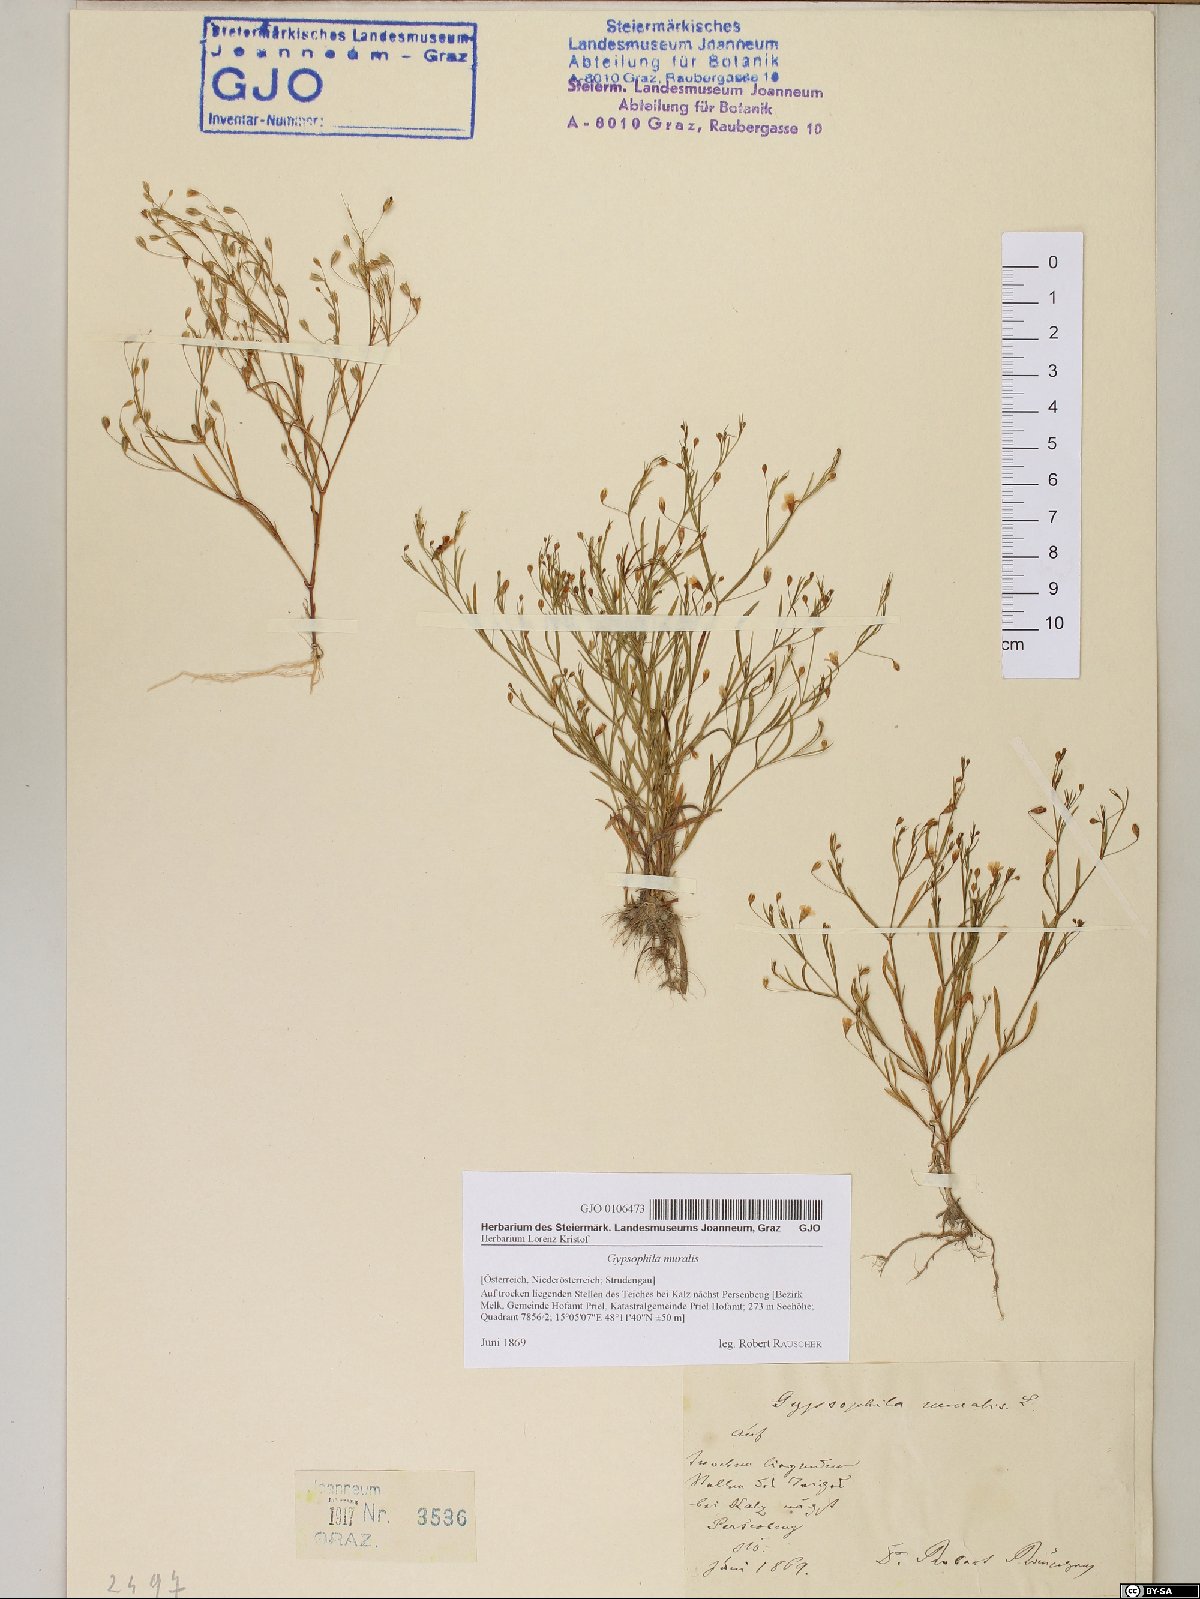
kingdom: Plantae
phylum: Tracheophyta
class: Magnoliopsida
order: Caryophyllales
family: Caryophyllaceae
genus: Psammophiliella
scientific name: Psammophiliella muralis
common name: Cushion baby's-breath
